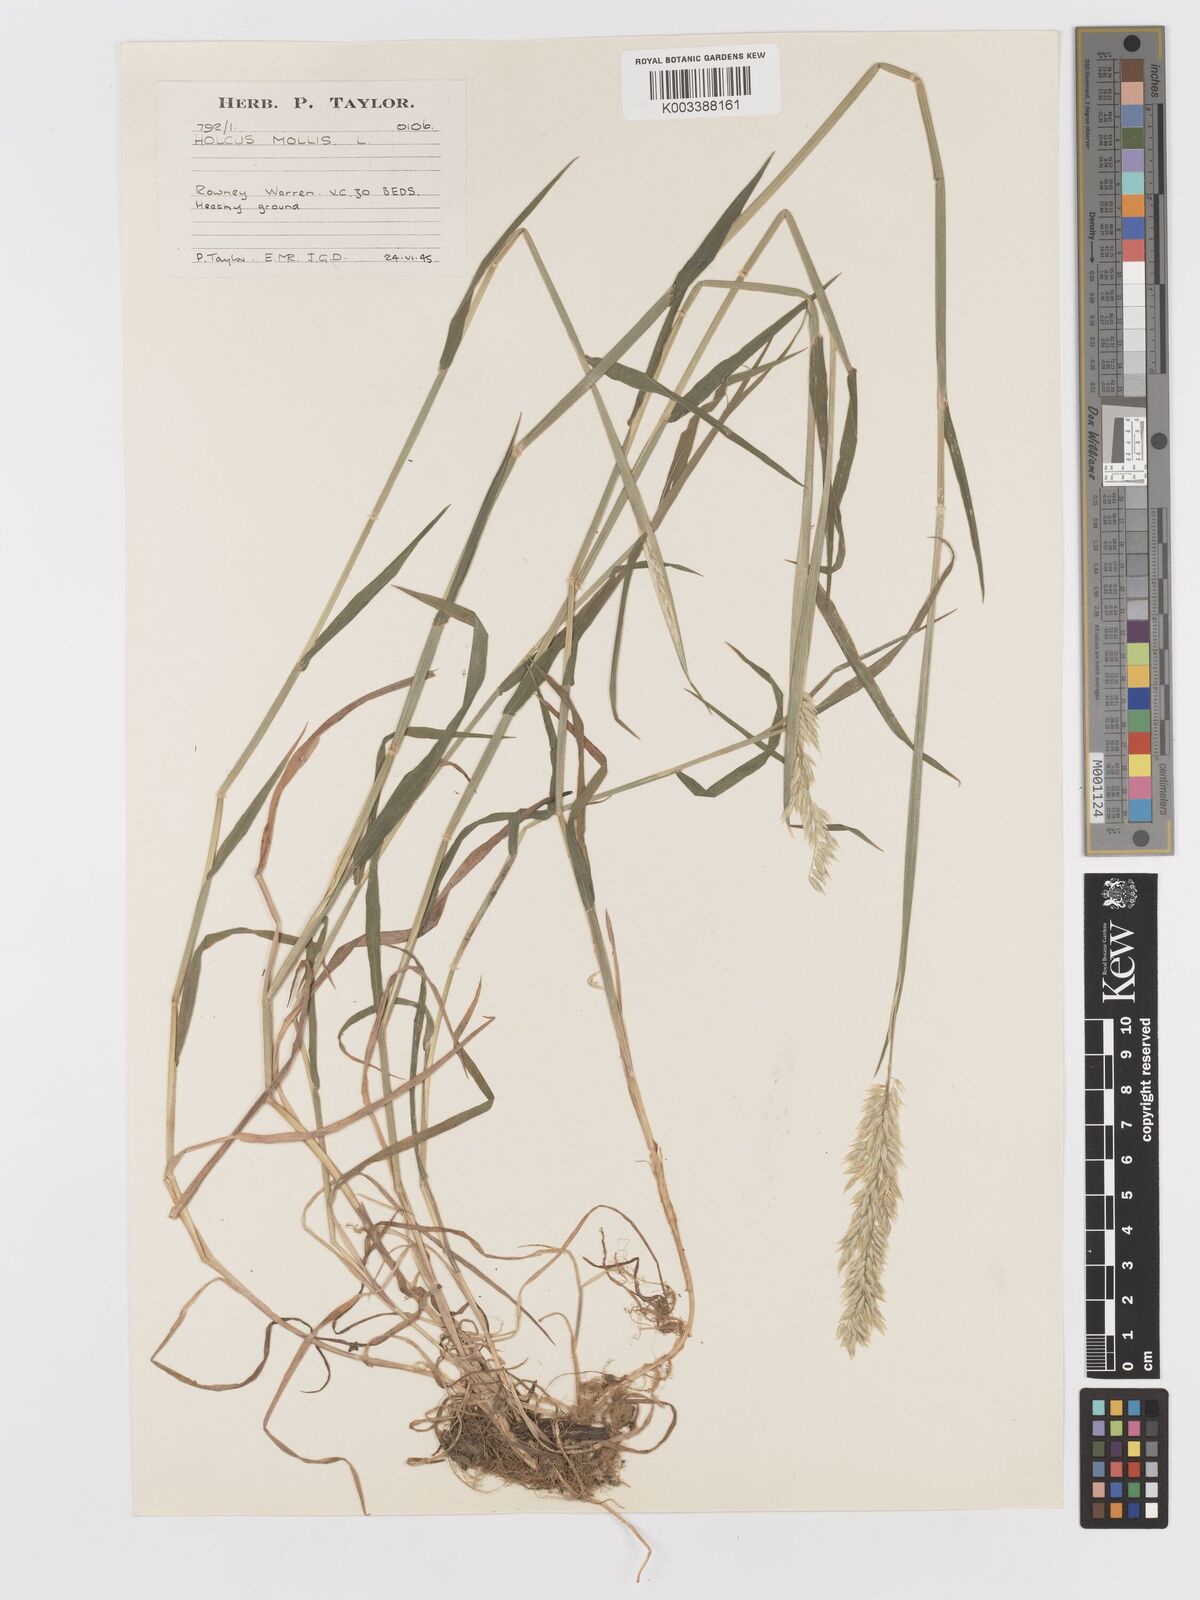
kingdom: Plantae
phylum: Tracheophyta
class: Liliopsida
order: Poales
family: Poaceae
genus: Holcus
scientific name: Holcus mollis
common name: Creeping velvetgrass
